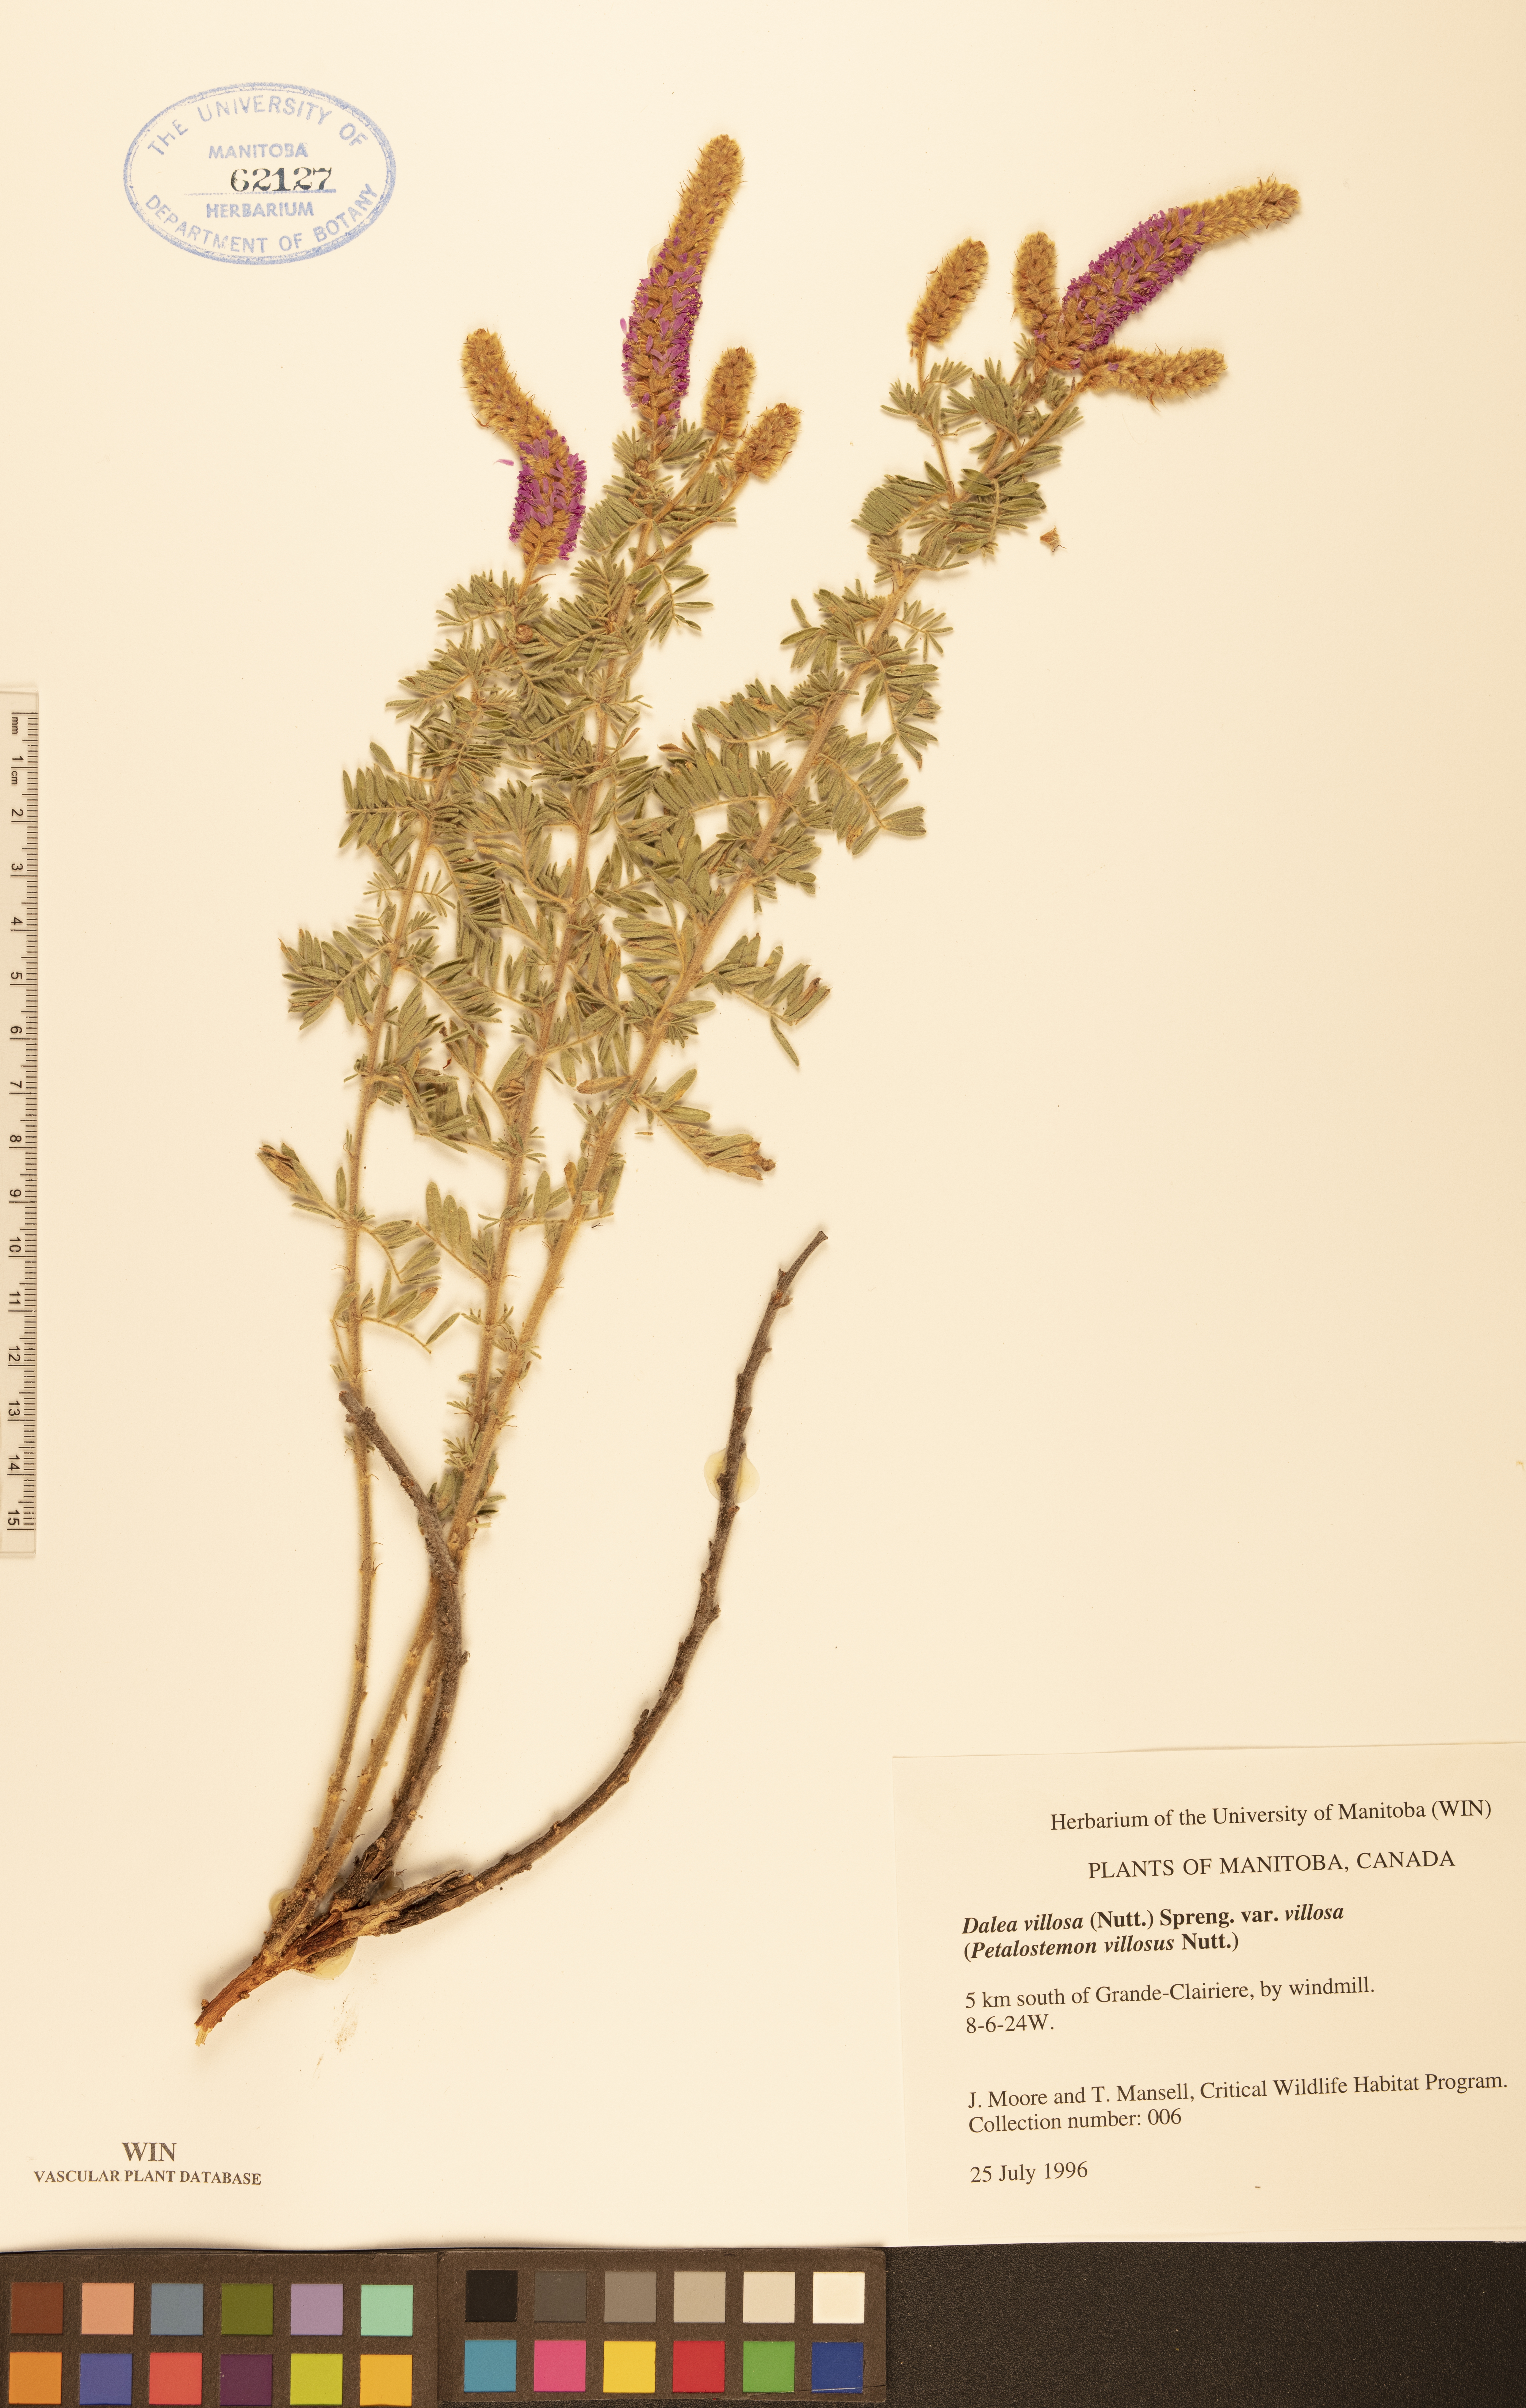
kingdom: Plantae
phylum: Tracheophyta
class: Magnoliopsida
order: Fabales
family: Fabaceae
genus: Dalea
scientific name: Dalea villosa
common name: Silky prairie-clover
